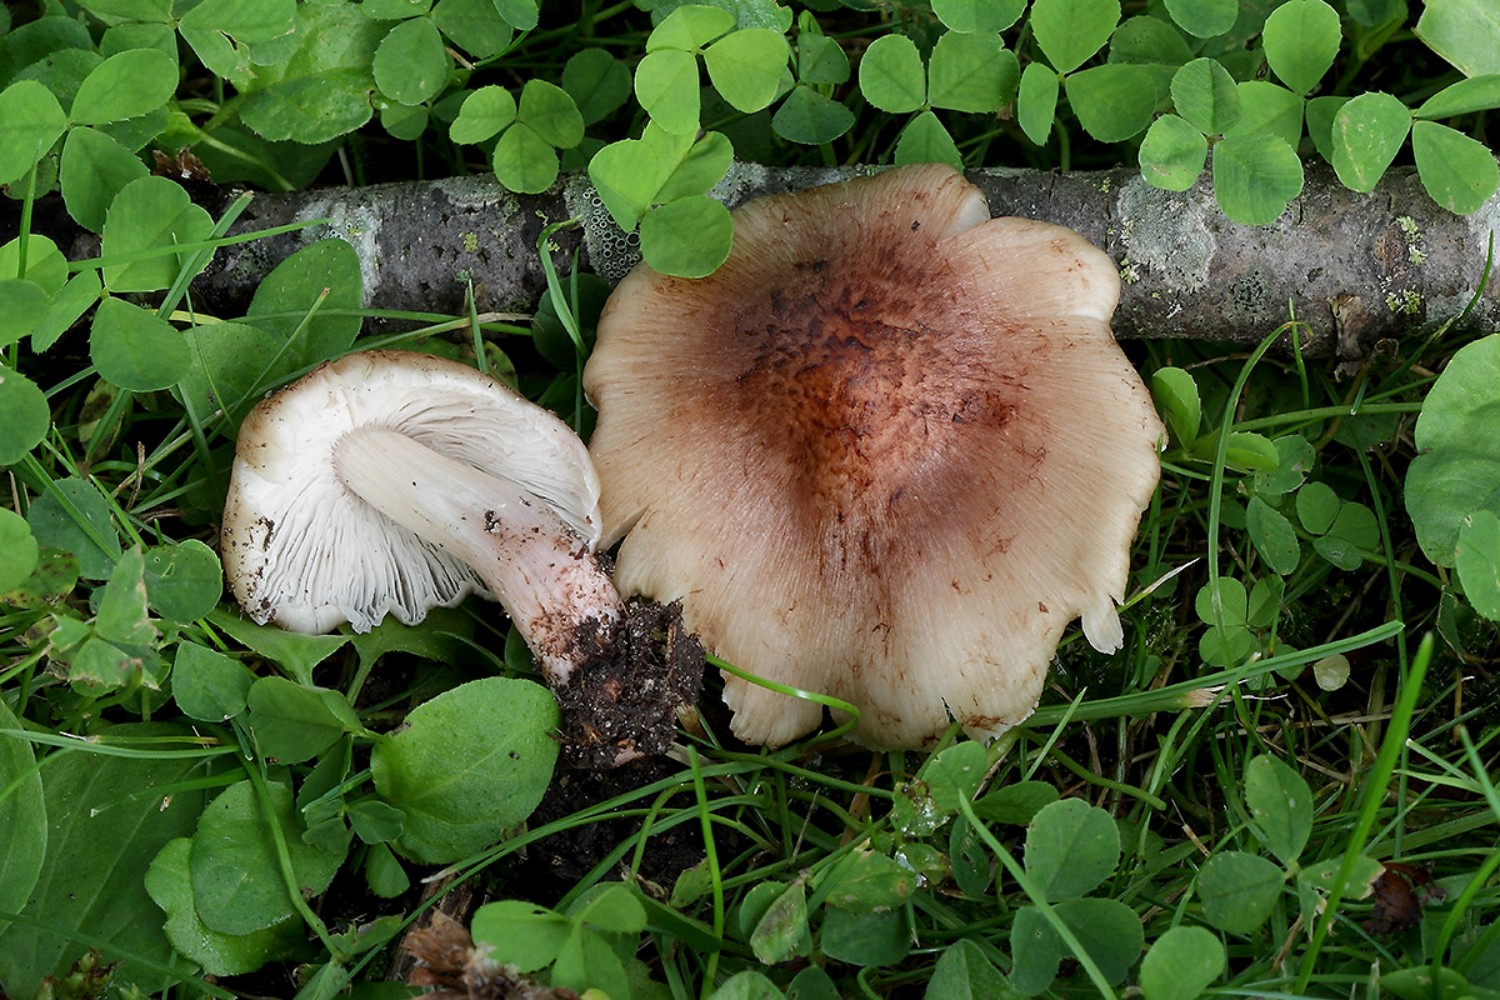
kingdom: Fungi
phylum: Basidiomycota
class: Agaricomycetes
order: Agaricales
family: Inocybaceae
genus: Inosperma
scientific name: Inosperma adaequatum
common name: vinrød trævlhat
